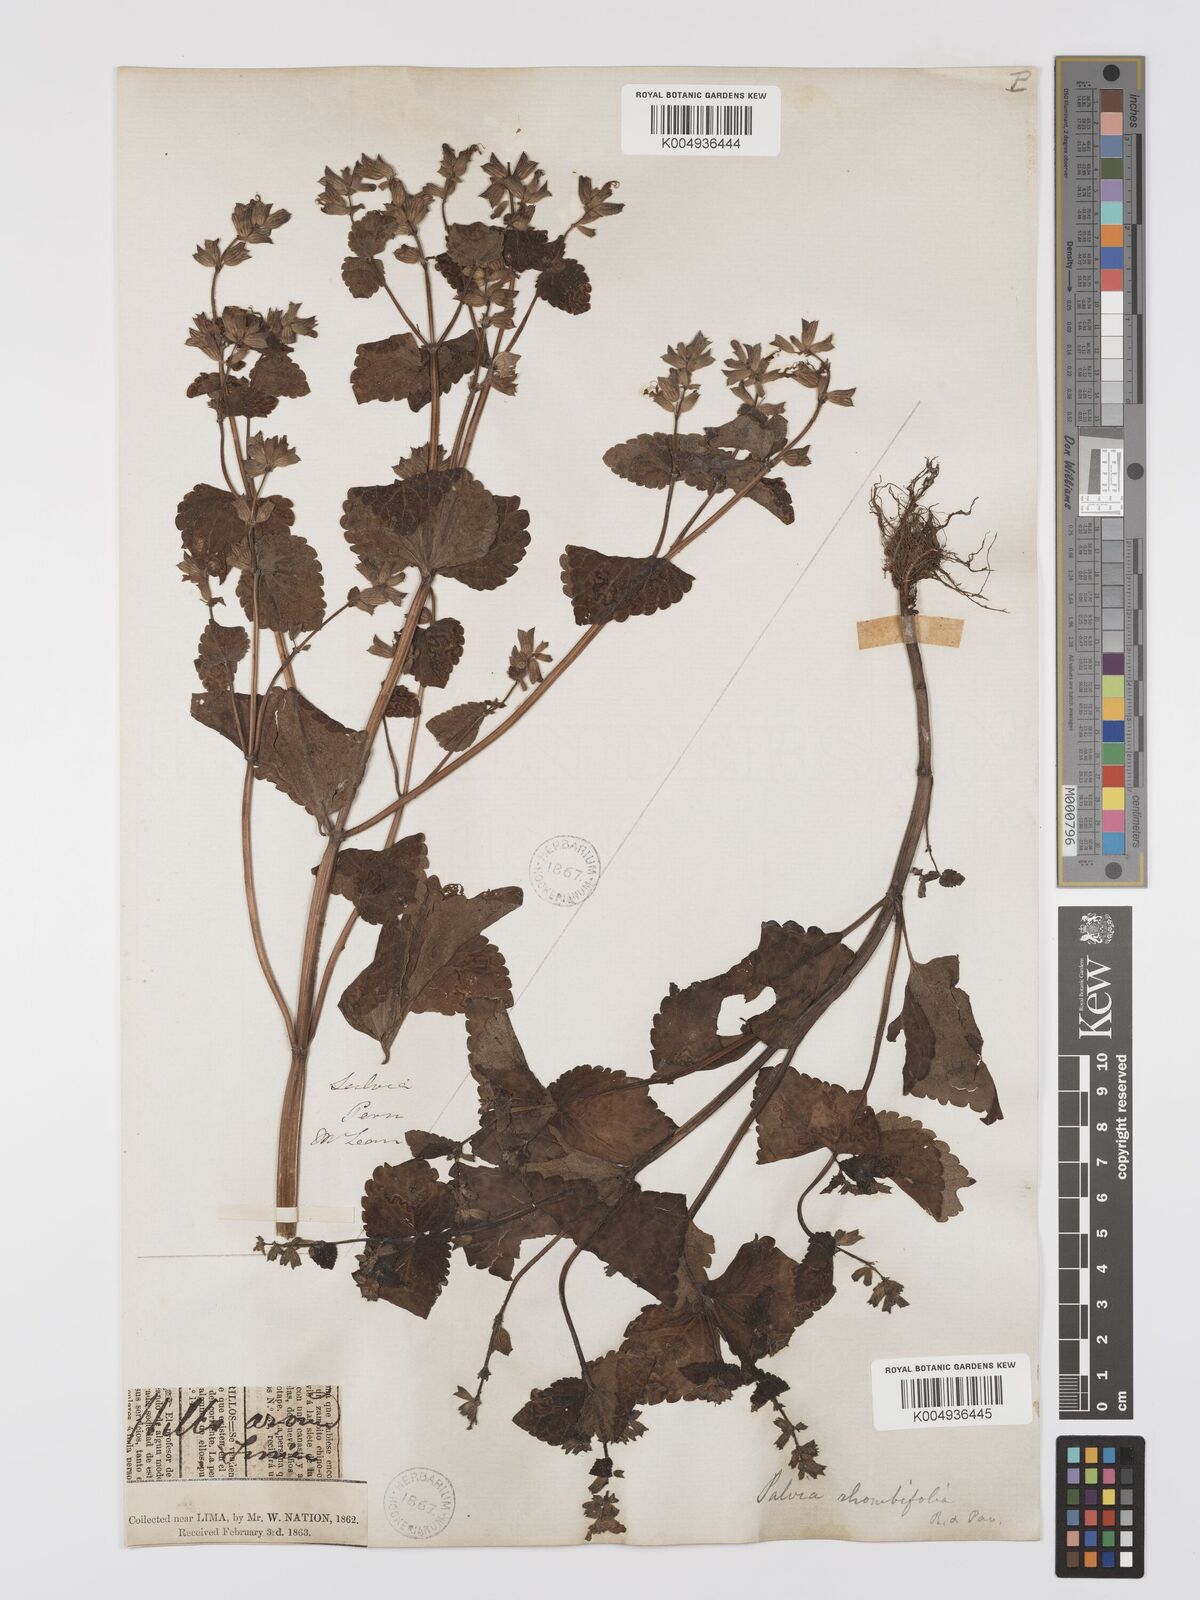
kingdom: Plantae
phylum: Tracheophyta
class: Magnoliopsida
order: Lamiales
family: Lamiaceae
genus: Salvia
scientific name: Salvia
